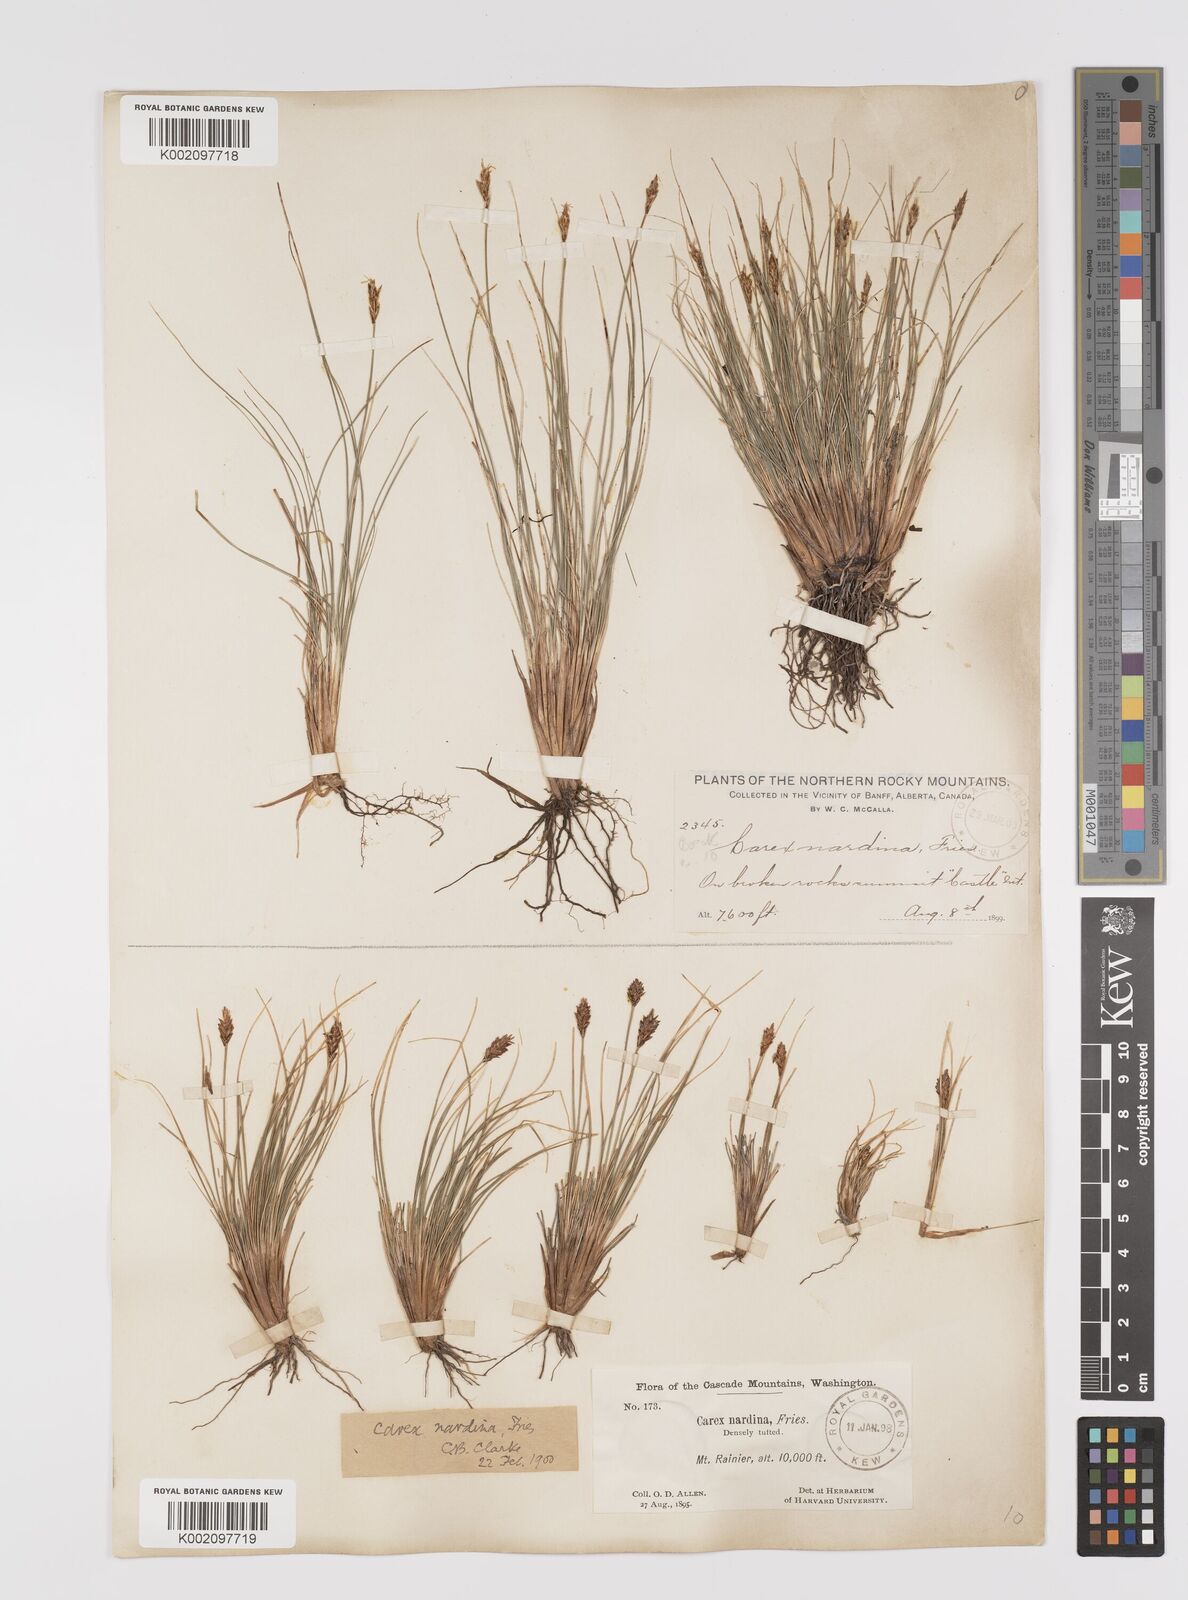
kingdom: Plantae
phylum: Tracheophyta
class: Liliopsida
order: Poales
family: Cyperaceae
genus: Carex
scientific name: Carex nardina
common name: Nard sedge
